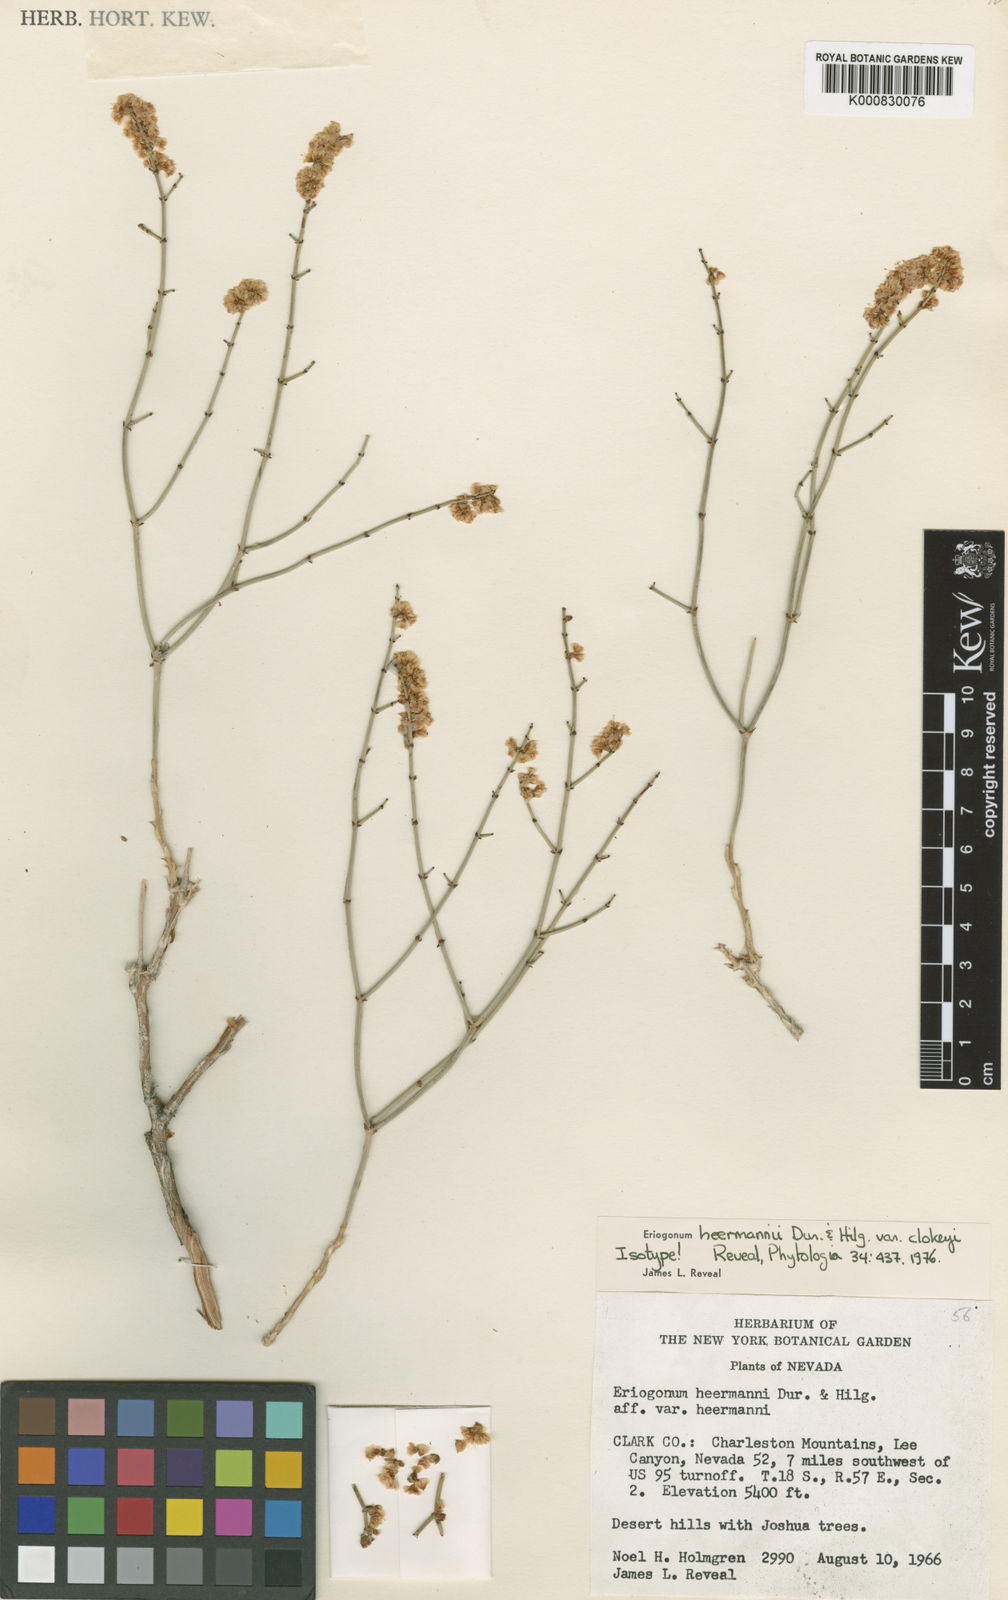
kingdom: Plantae
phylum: Tracheophyta
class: Magnoliopsida
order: Caryophyllales
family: Polygonaceae
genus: Eriogonum
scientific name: Eriogonum heermannii
